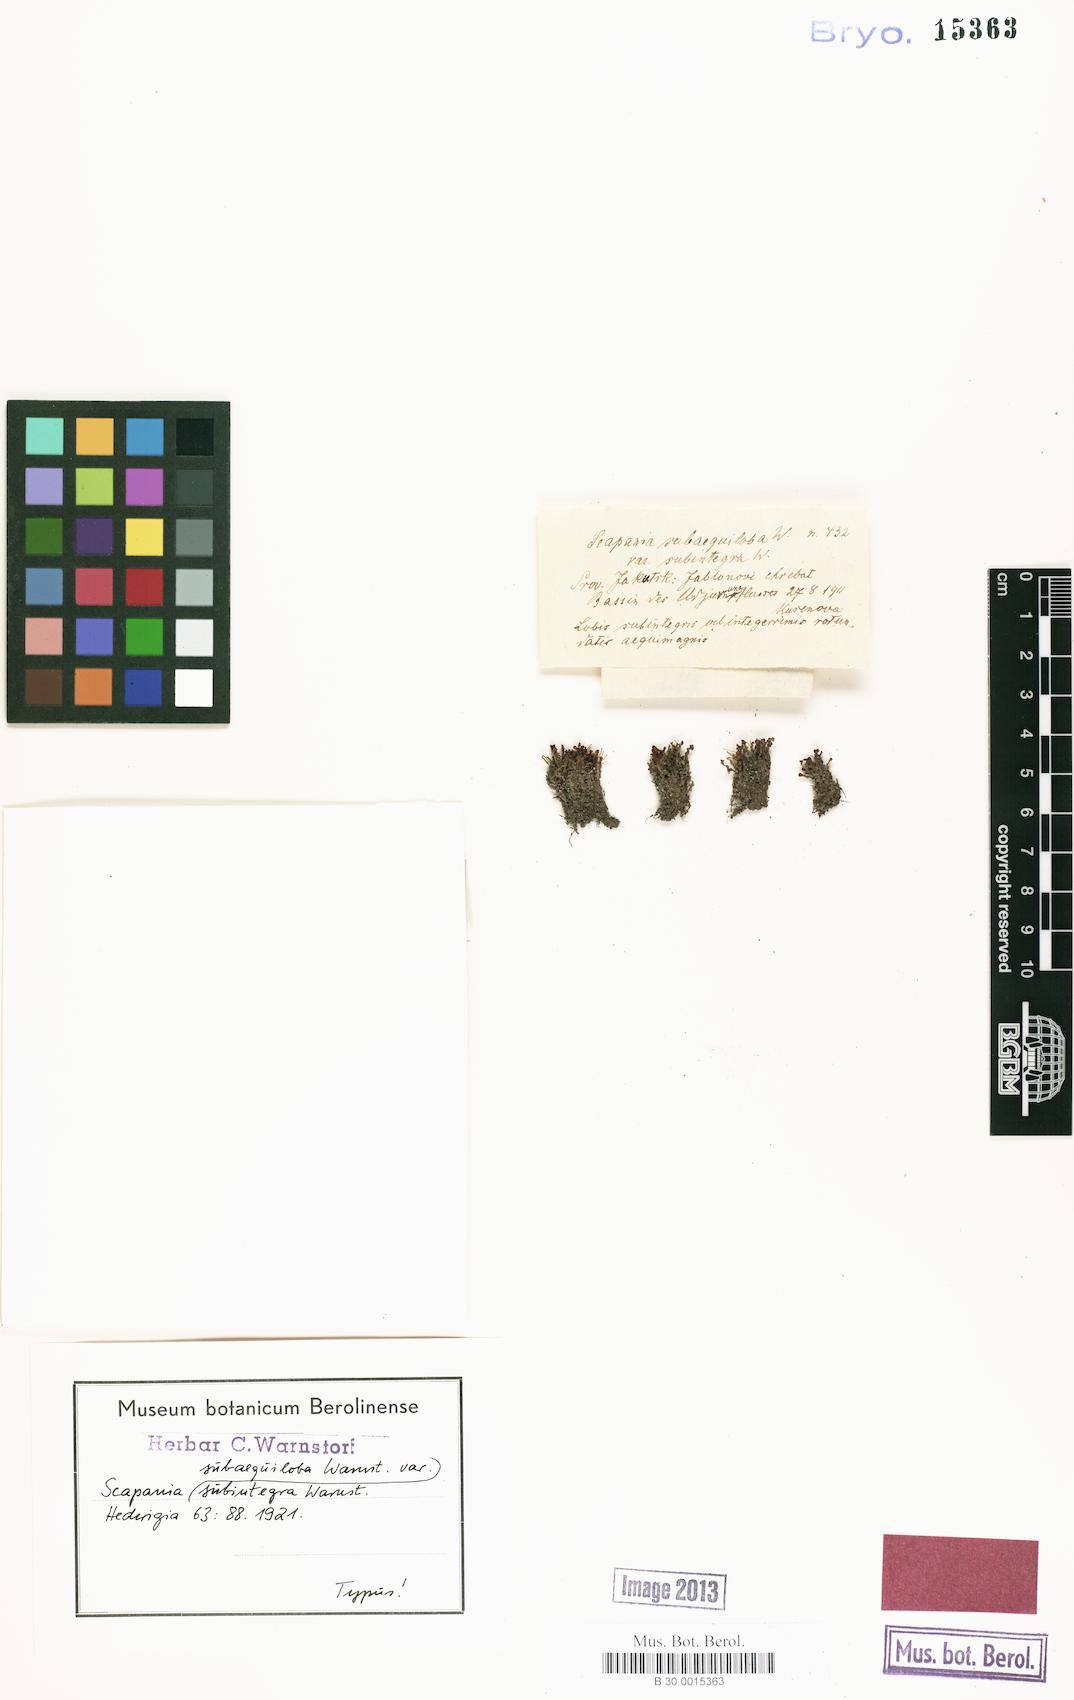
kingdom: Plantae
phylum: Marchantiophyta
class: Jungermanniopsida
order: Jungermanniales
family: Scapaniaceae
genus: Scapania
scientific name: Scapania subalpina
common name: Subalpine earwort
